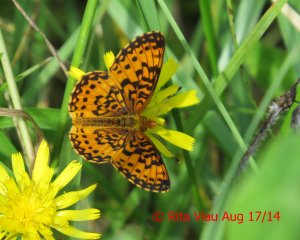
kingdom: Animalia
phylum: Arthropoda
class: Insecta
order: Lepidoptera
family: Nymphalidae
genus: Boloria
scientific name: Boloria selene
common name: Silver-bordered Fritillary
